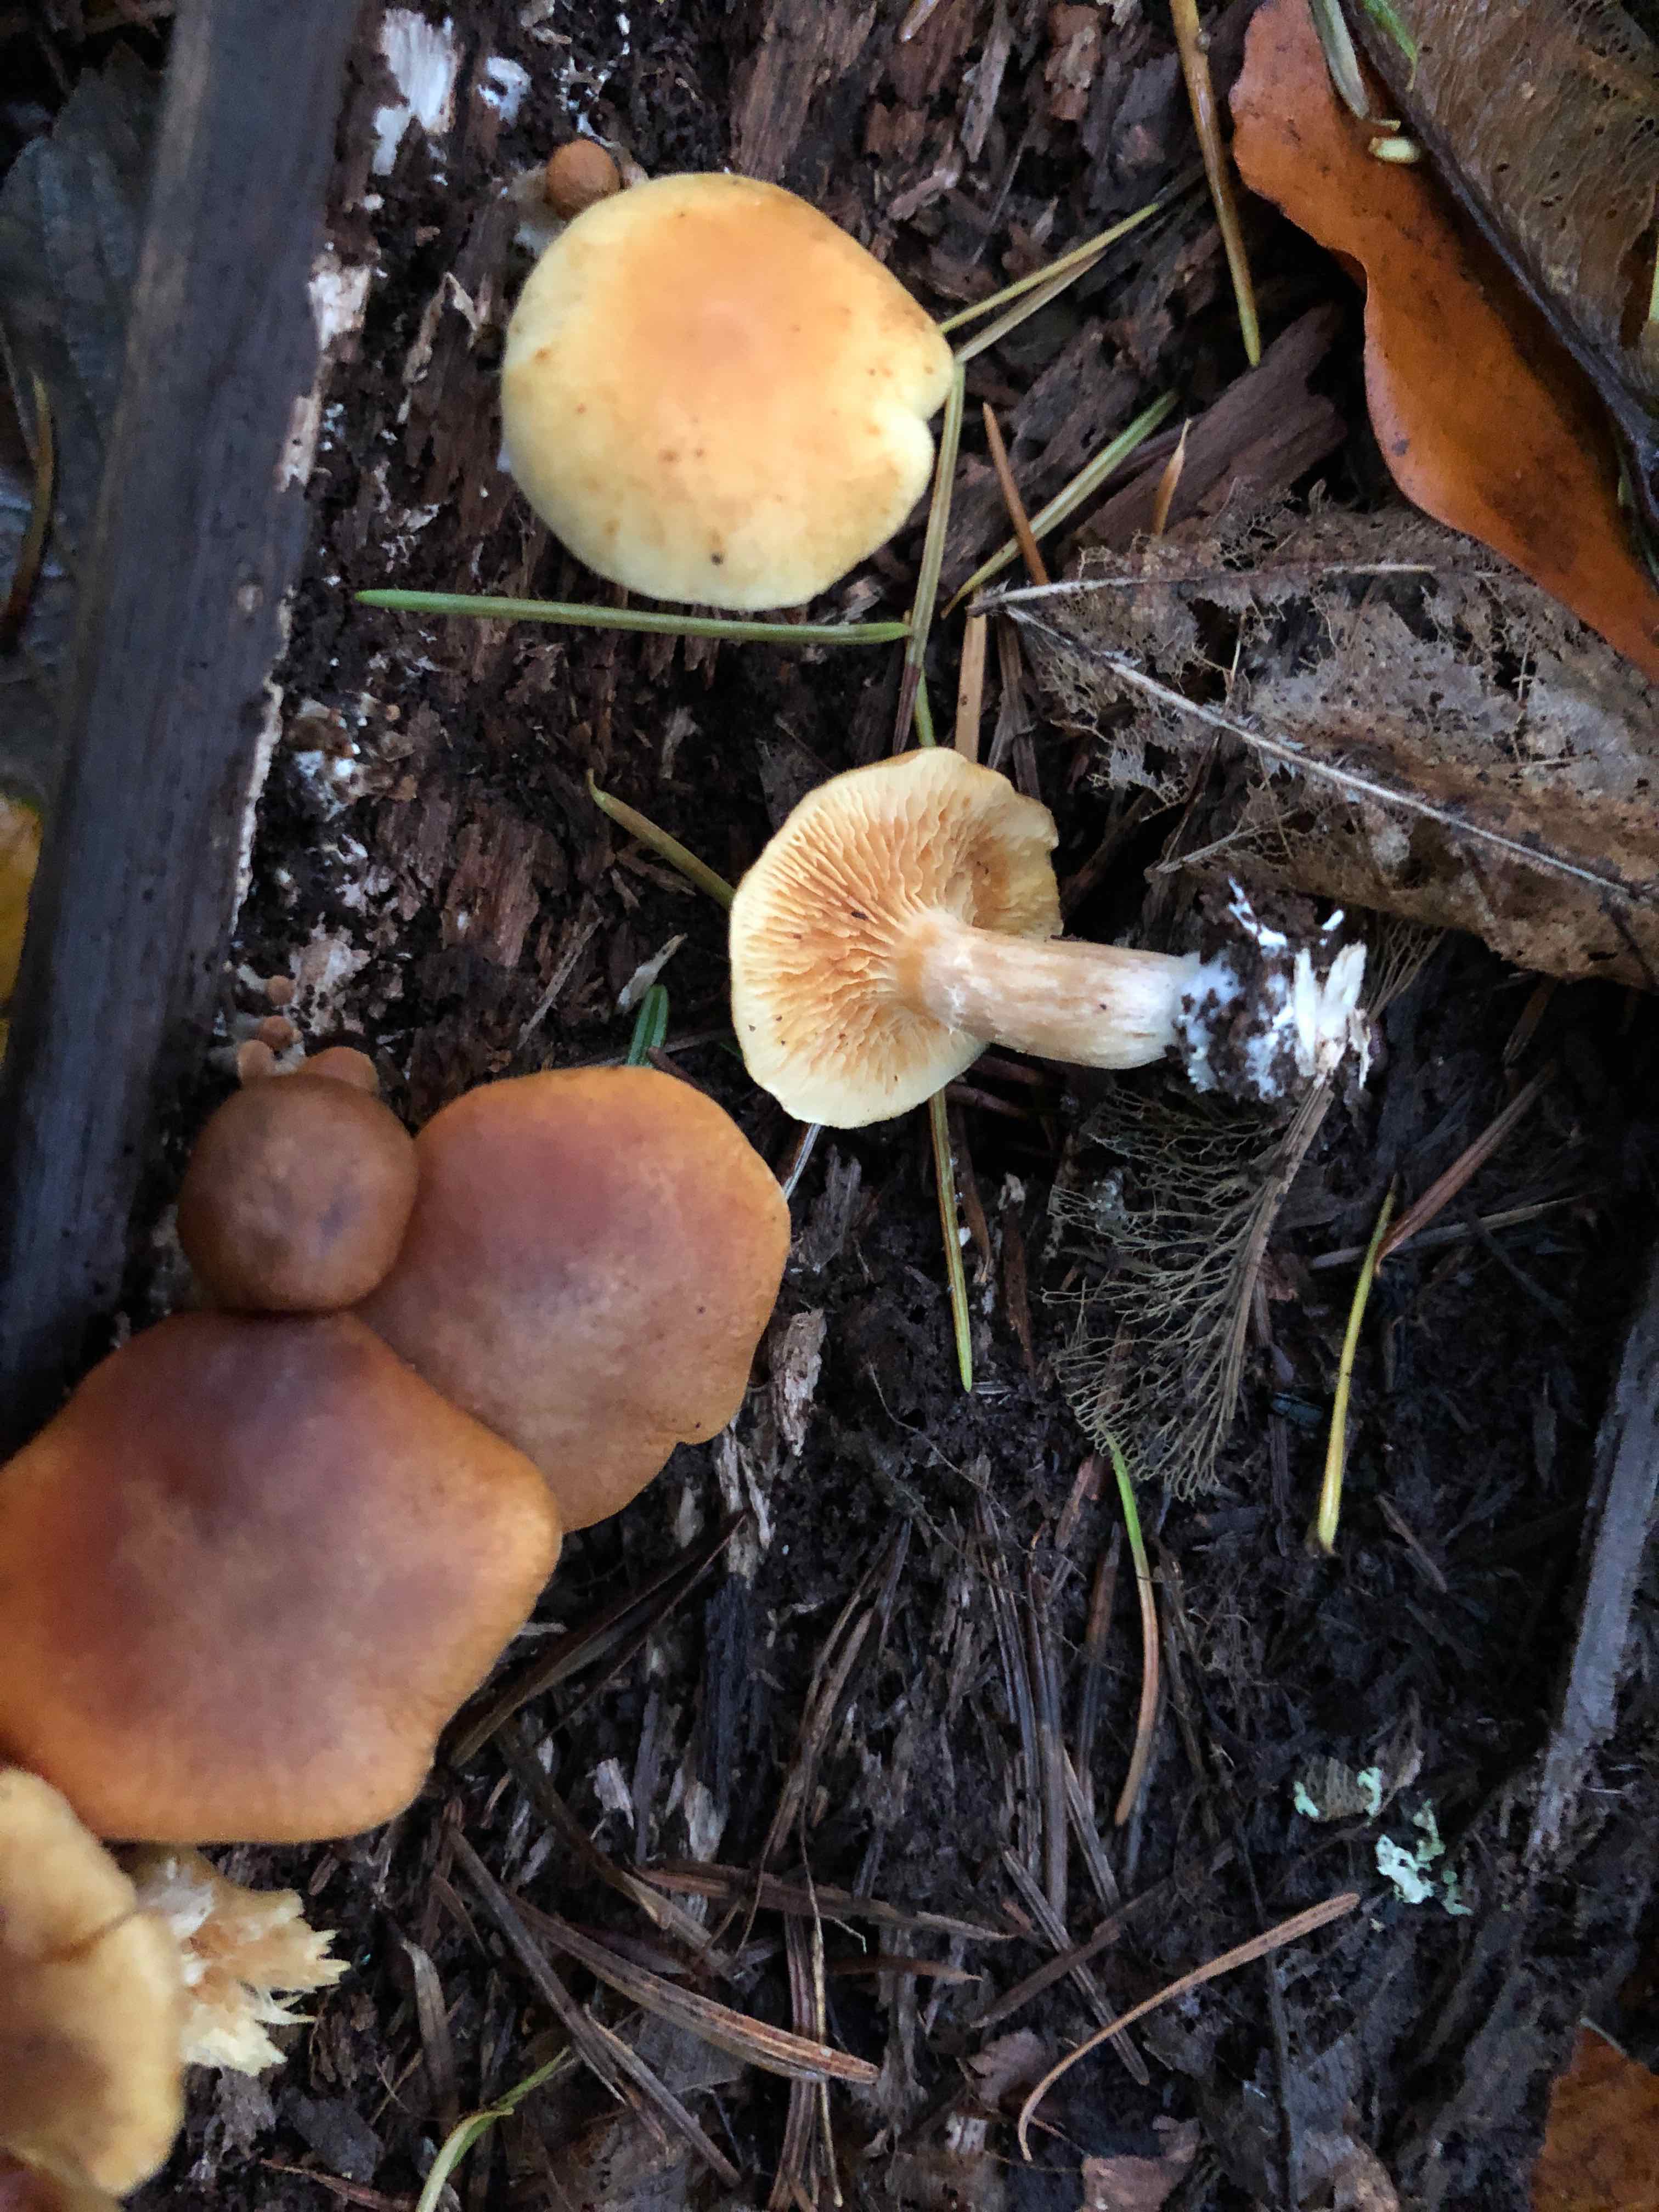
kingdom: Fungi
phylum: Basidiomycota
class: Agaricomycetes
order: Agaricales
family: Hymenogastraceae
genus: Gymnopilus
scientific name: Gymnopilus penetrans
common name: plettet flammehat
